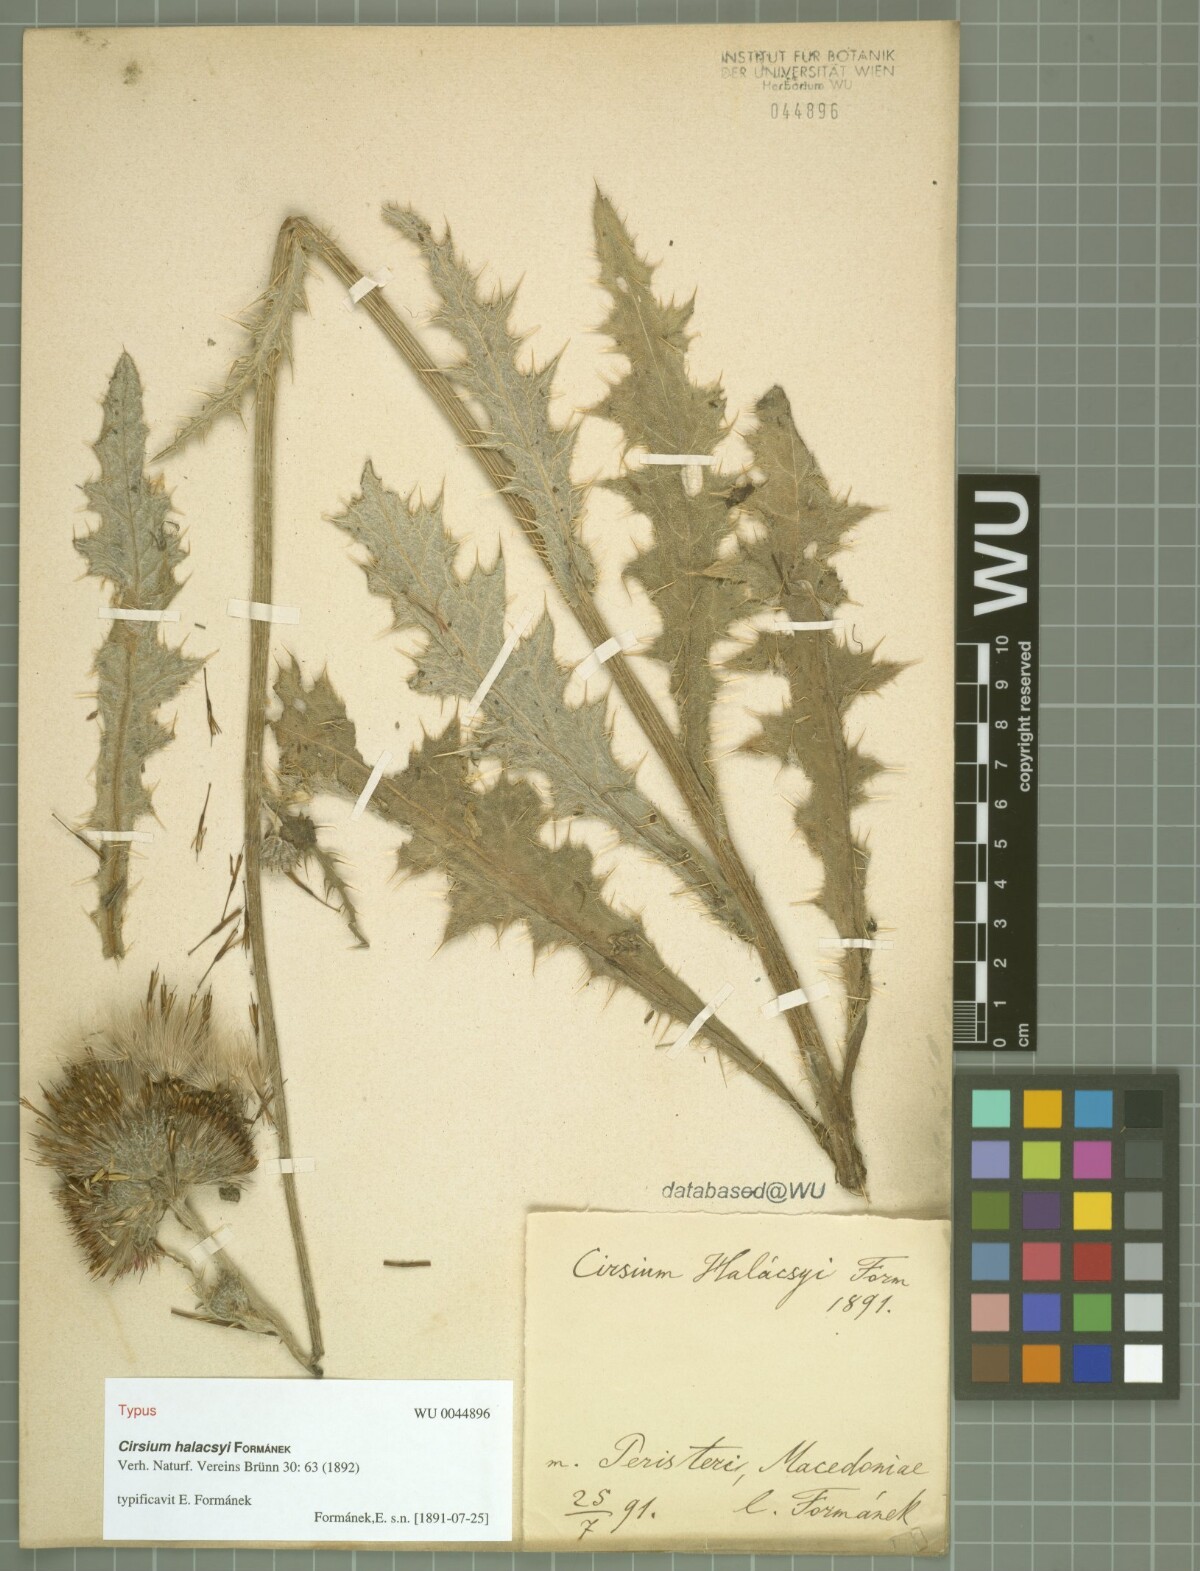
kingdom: Plantae
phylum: Tracheophyta
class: Magnoliopsida
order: Asterales
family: Asteraceae
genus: Cirsium
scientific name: Cirsium halacsyi
